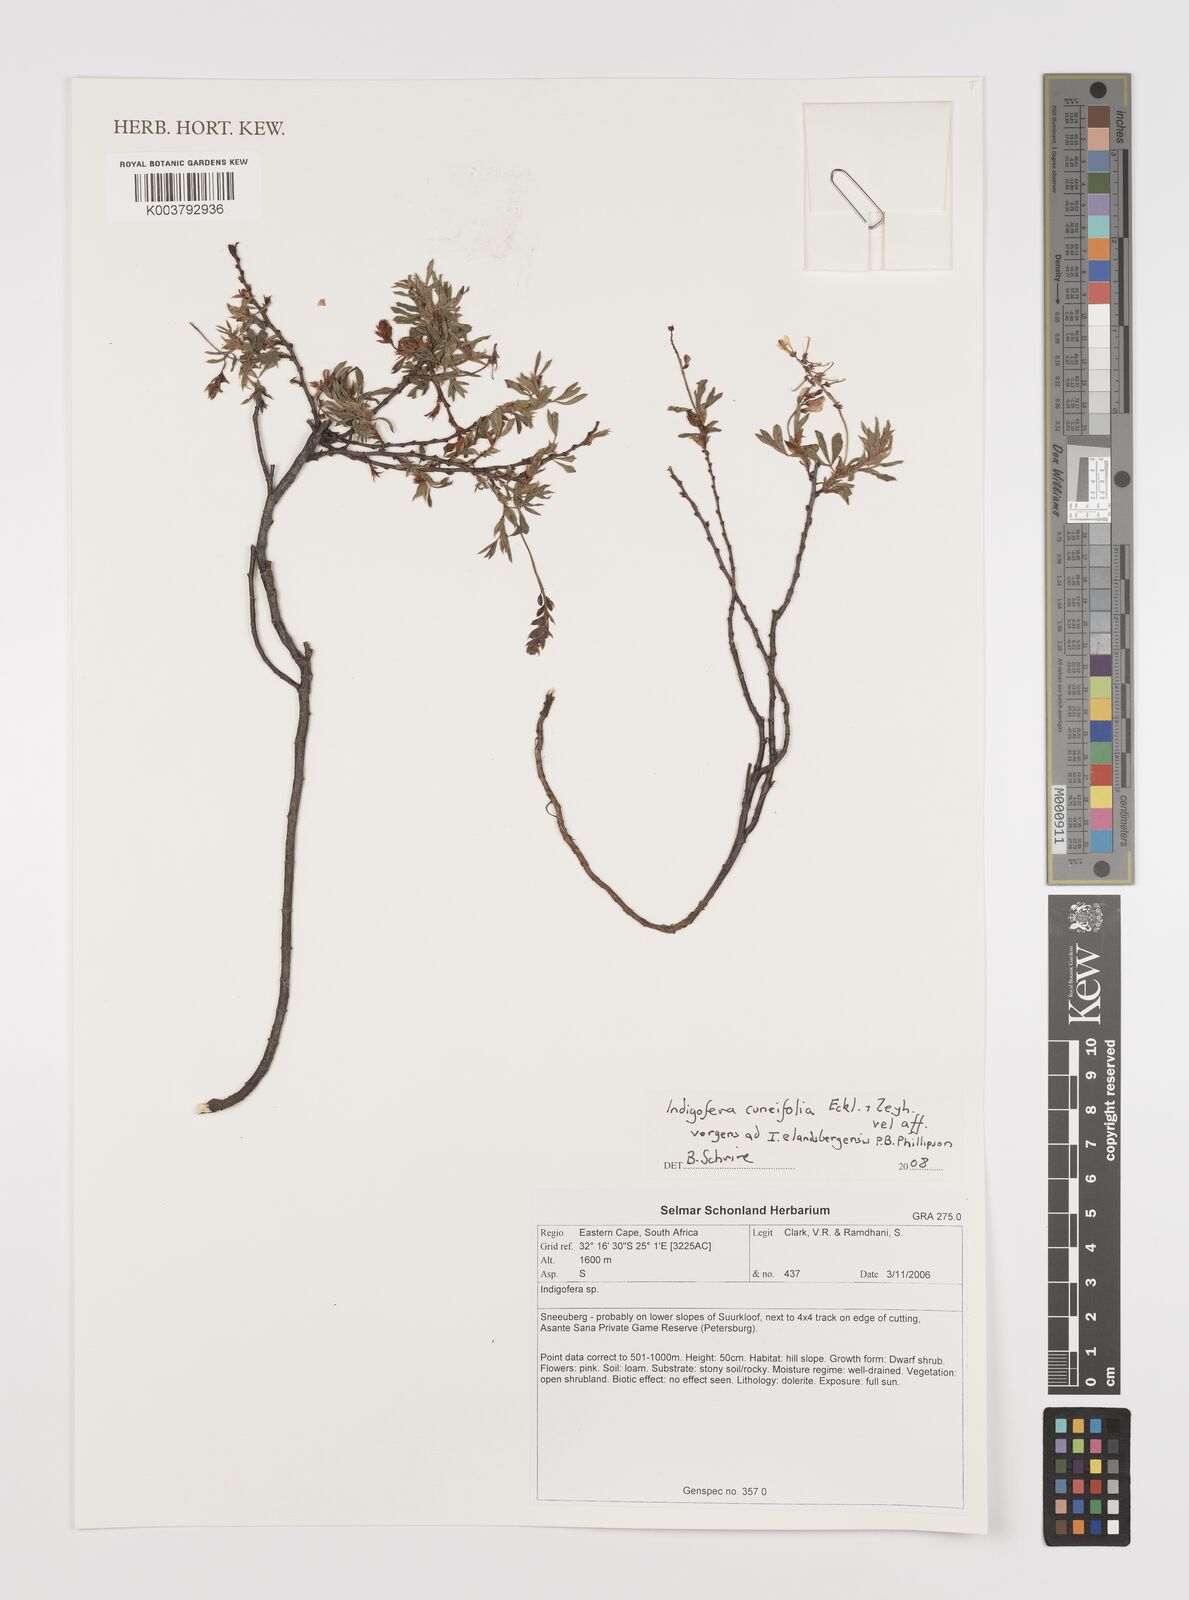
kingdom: Plantae
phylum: Tracheophyta
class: Magnoliopsida
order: Fabales
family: Fabaceae
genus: Indigofera
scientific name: Indigofera cuneifolia
